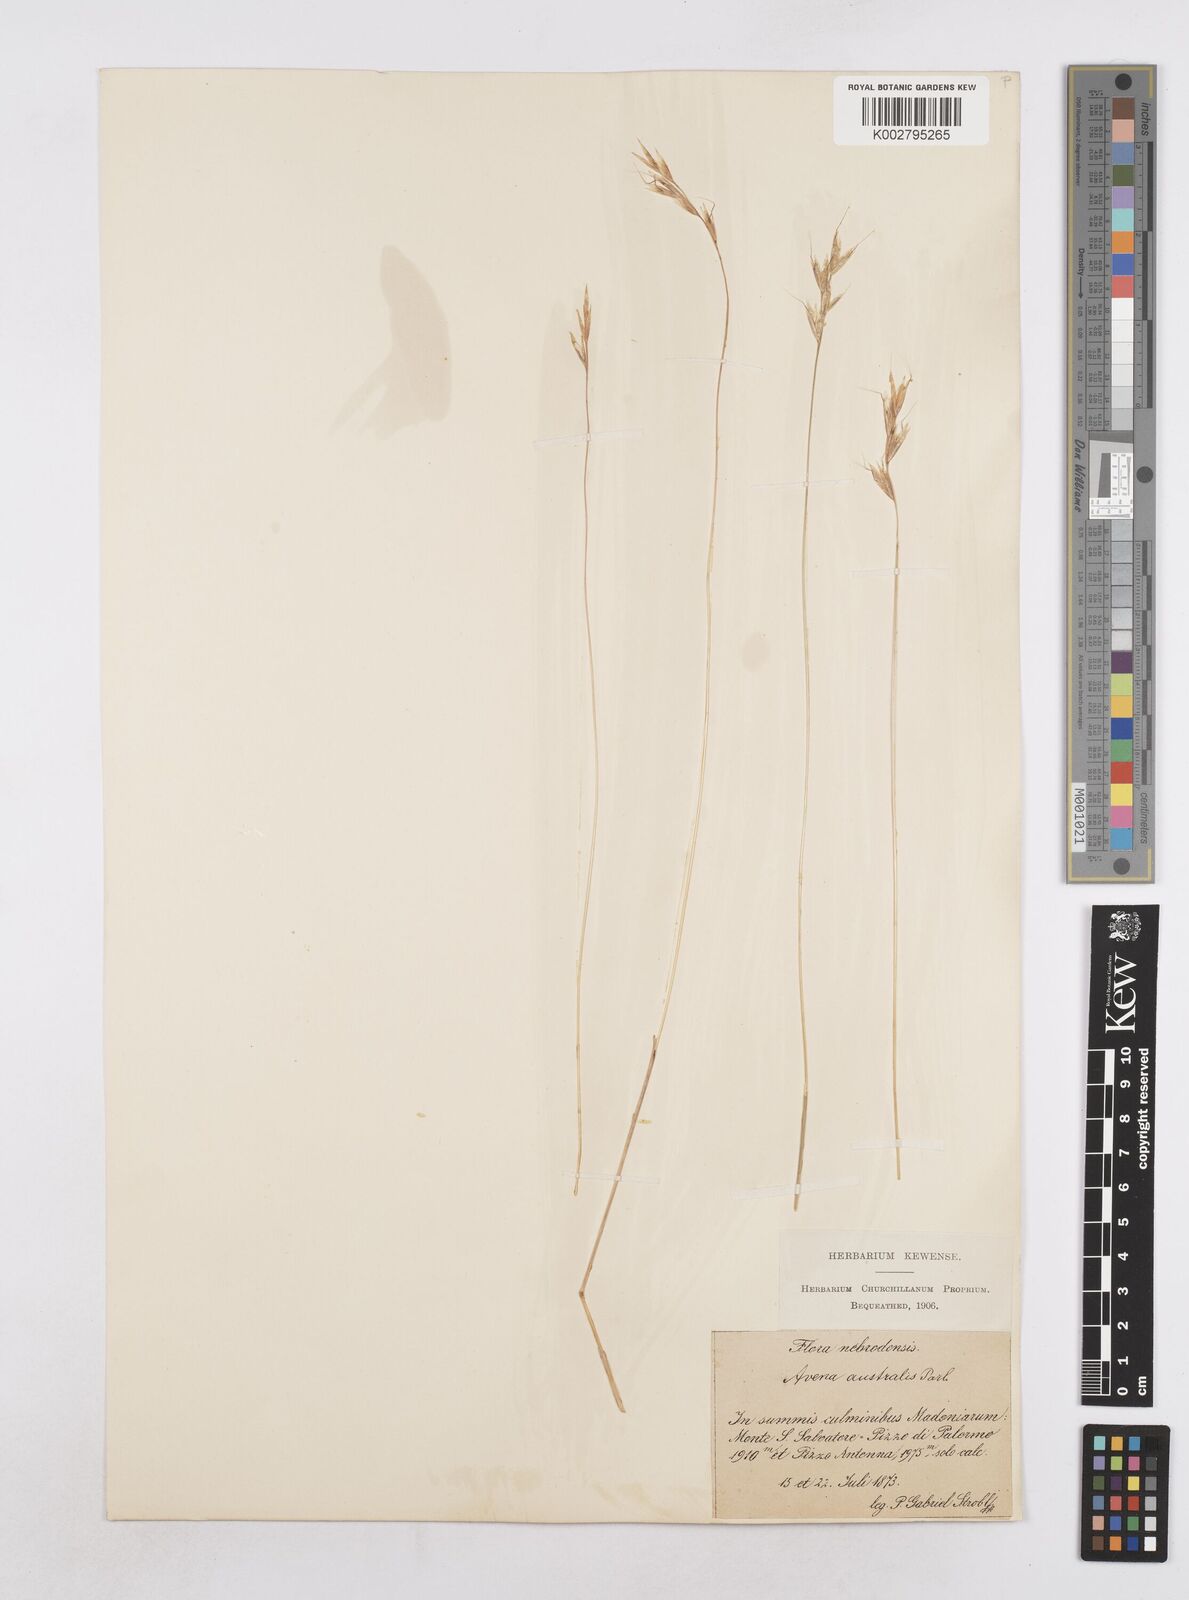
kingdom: Plantae
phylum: Tracheophyta
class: Liliopsida
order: Poales
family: Poaceae
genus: Helictochloa
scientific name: Helictochloa cincinnata
